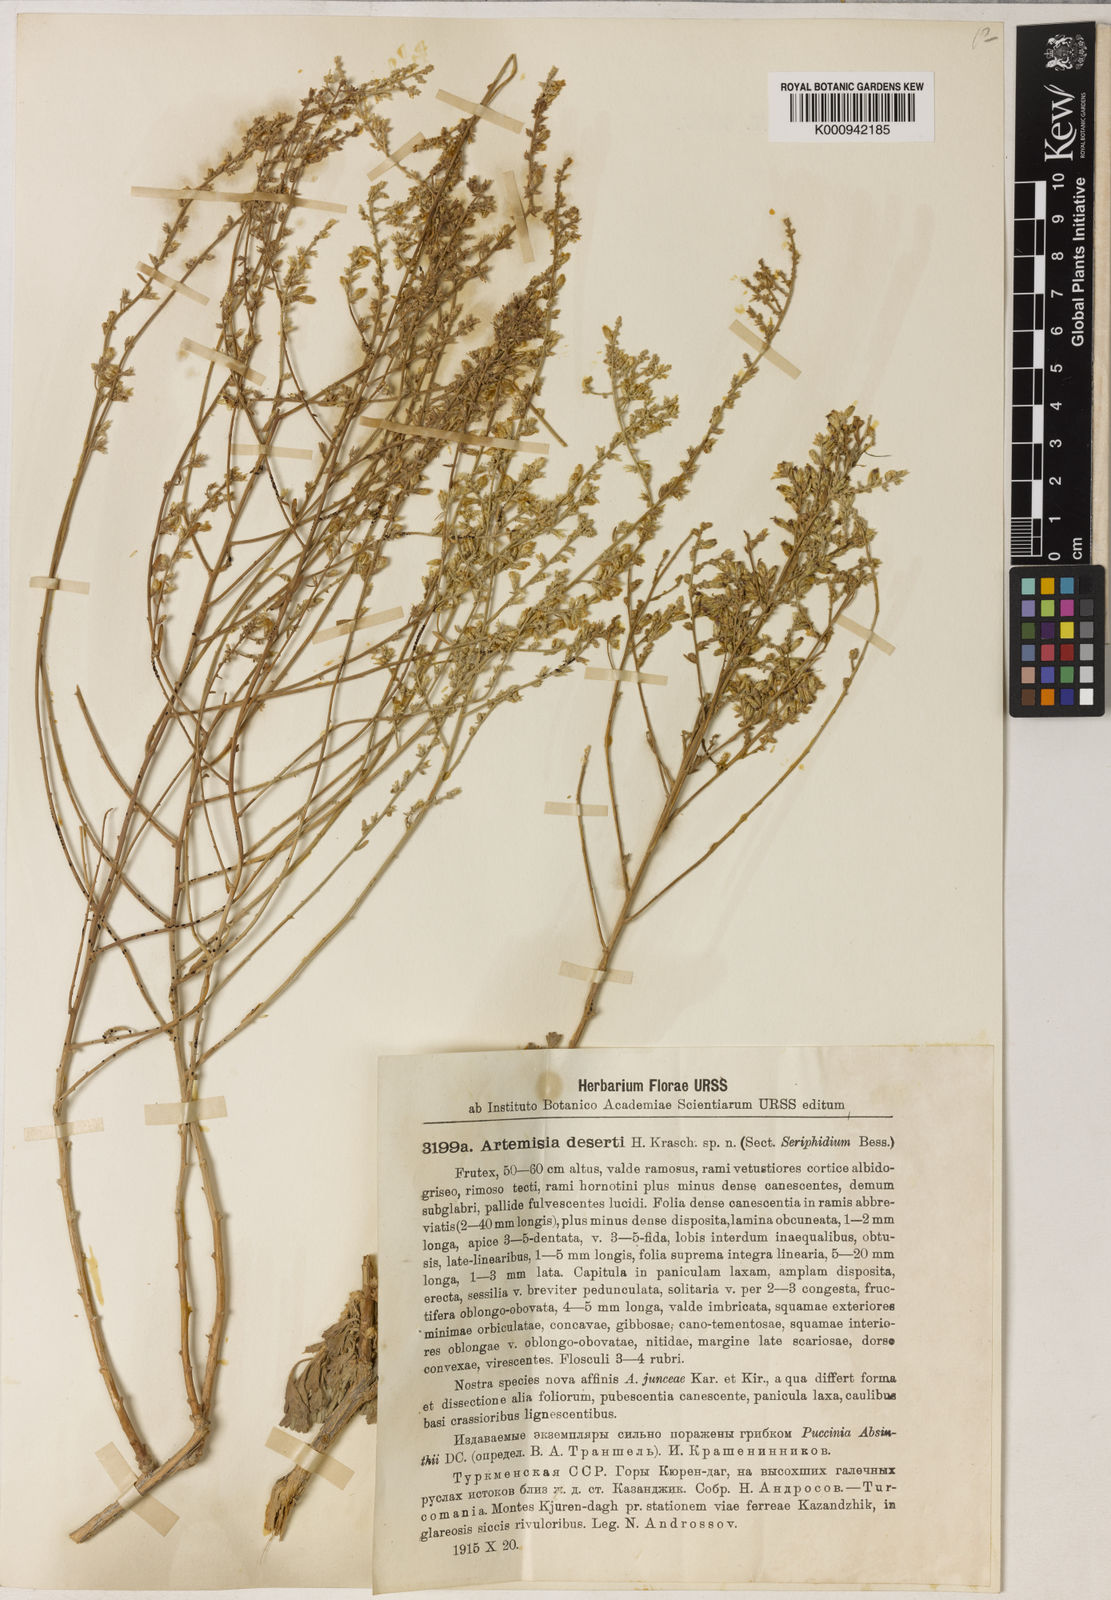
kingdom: Plantae
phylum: Tracheophyta
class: Magnoliopsida
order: Asterales
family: Asteraceae
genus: Artemisia
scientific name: Artemisia deserti
